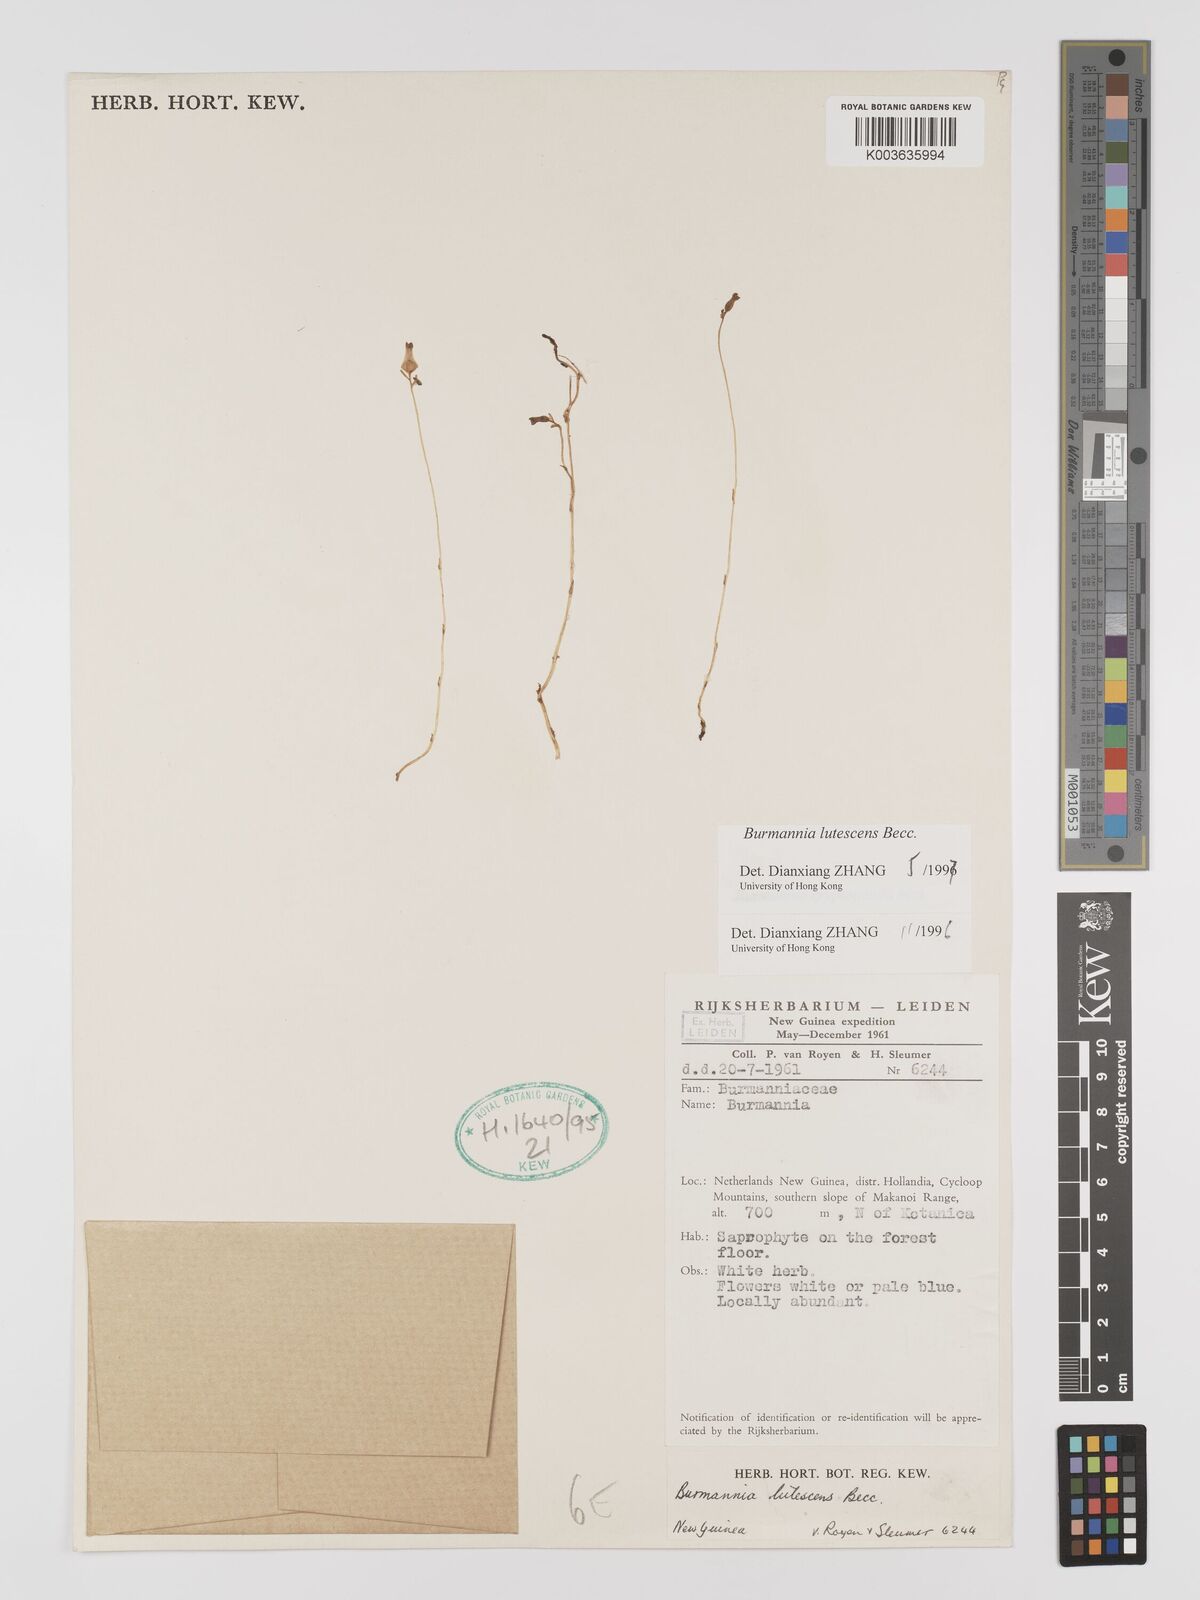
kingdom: Plantae
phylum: Tracheophyta
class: Liliopsida
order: Dioscoreales
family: Burmanniaceae
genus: Burmannia
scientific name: Burmannia lutescens
